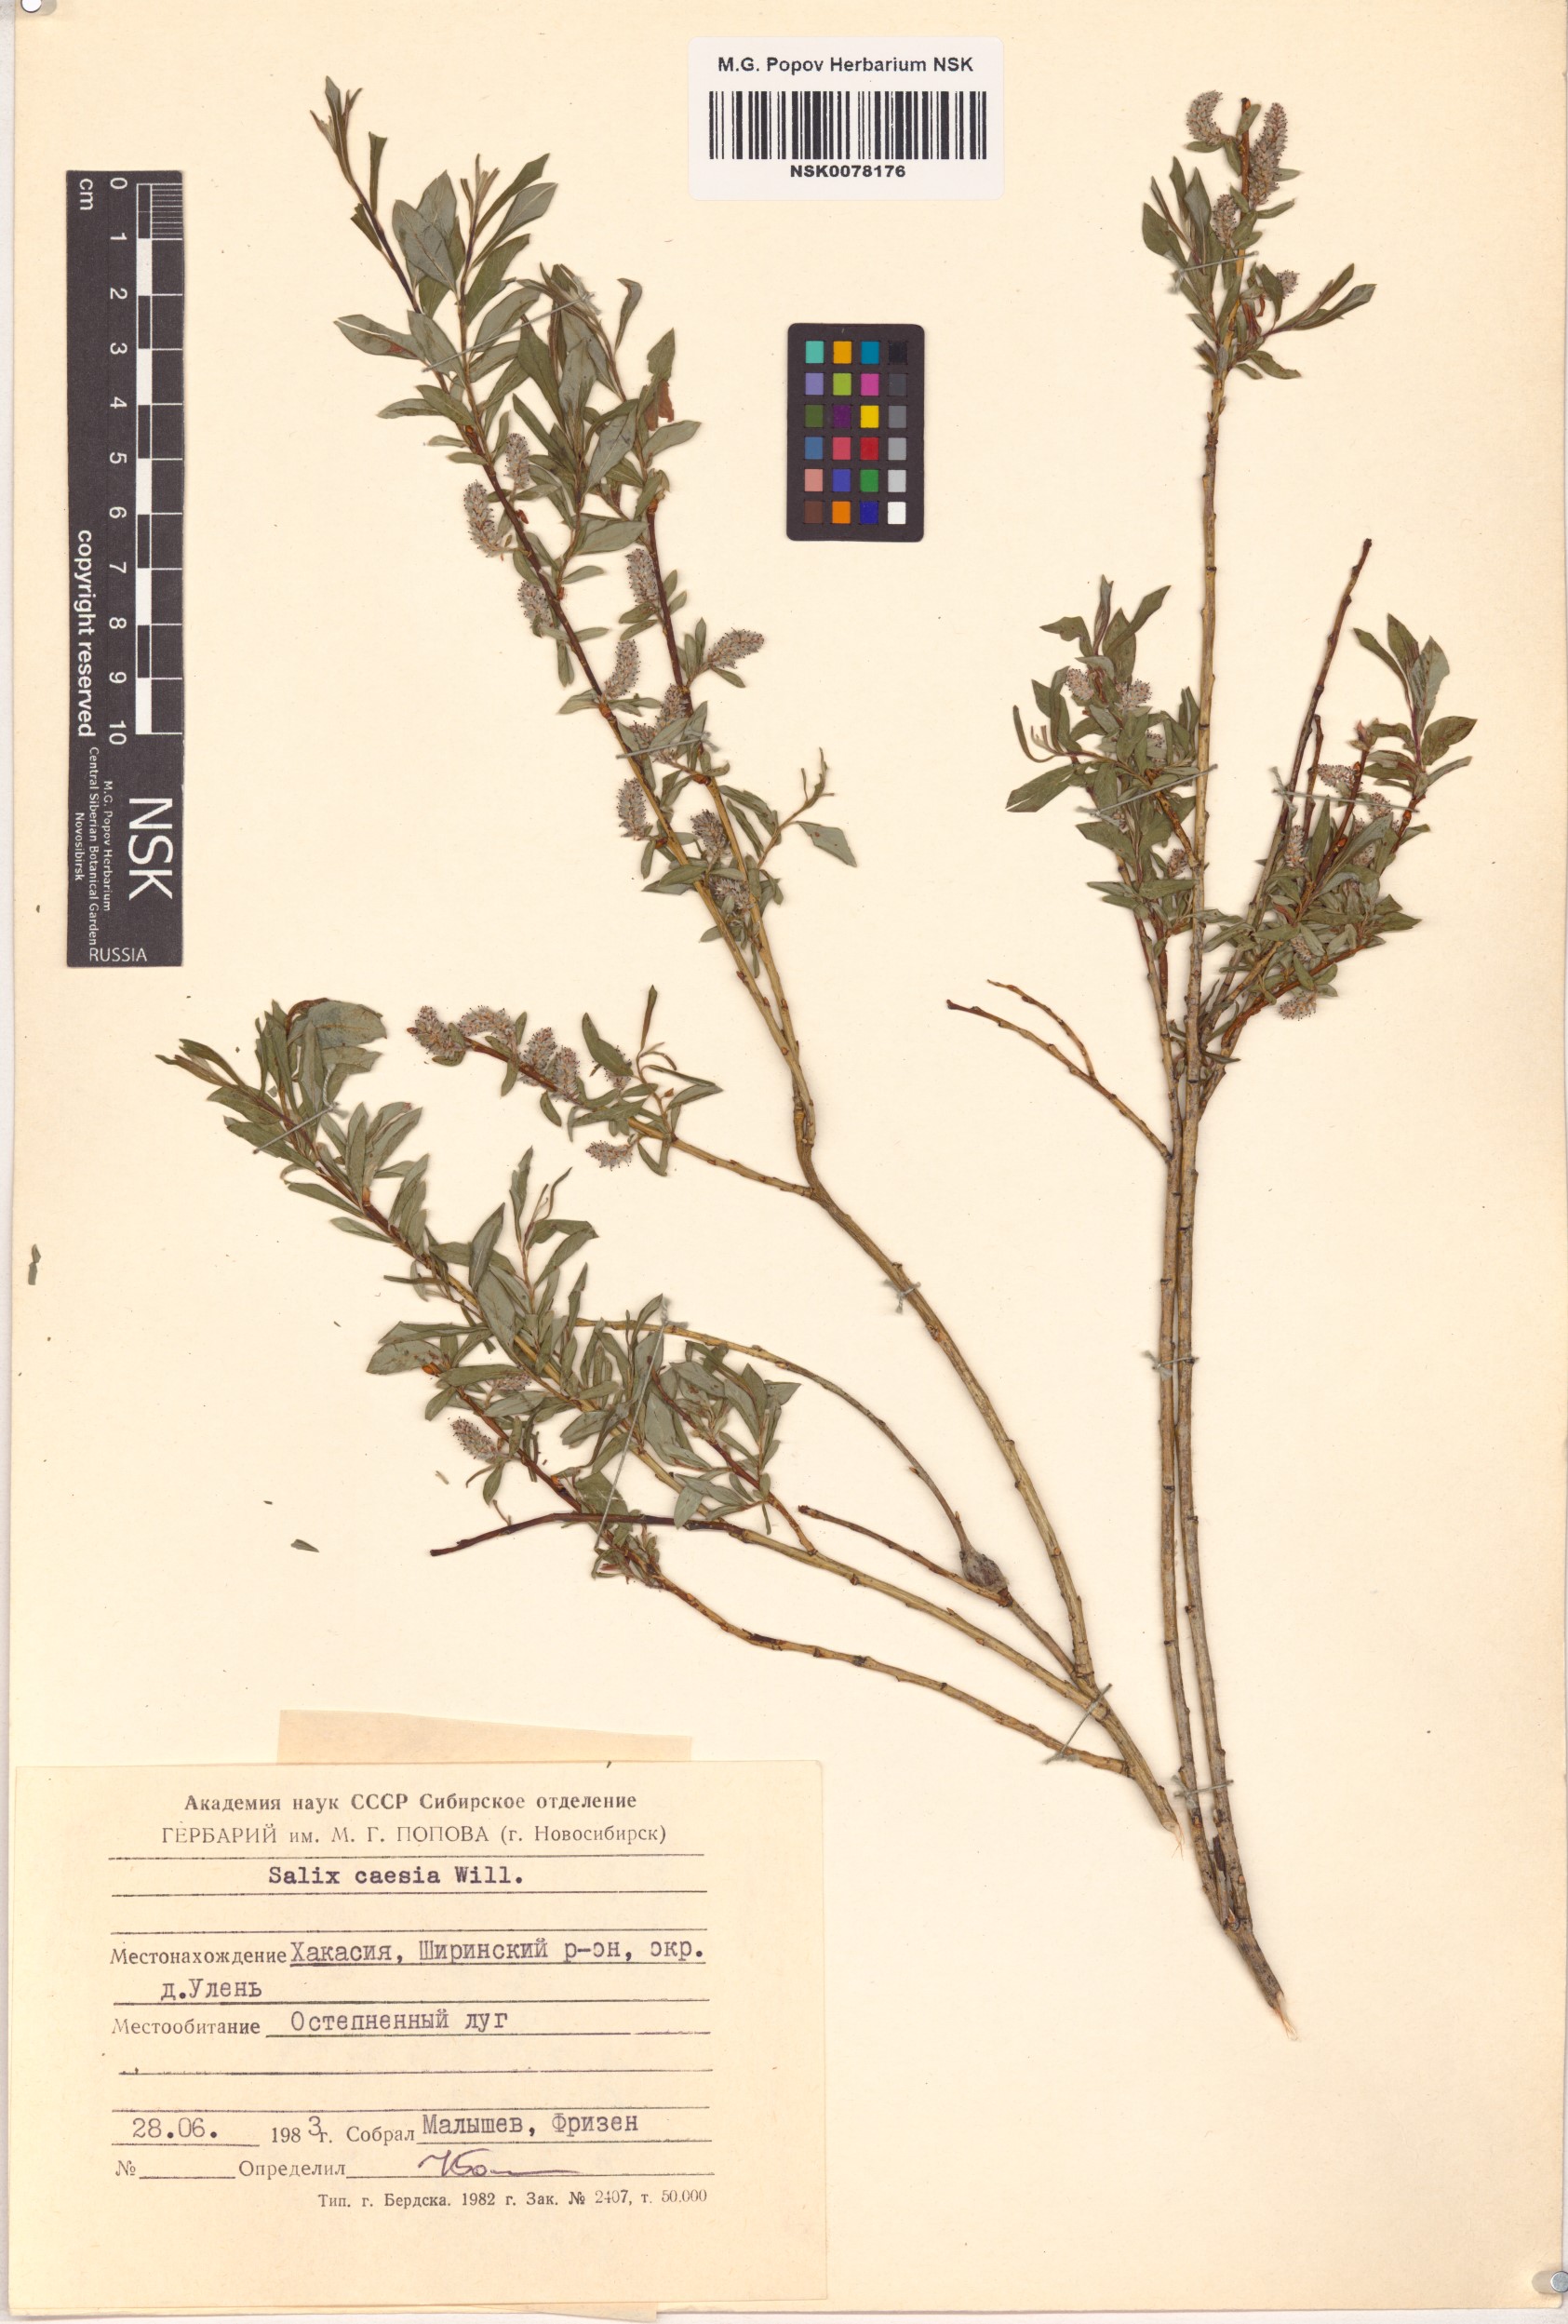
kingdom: Plantae
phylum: Tracheophyta
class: Magnoliopsida
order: Malpighiales
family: Salicaceae
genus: Salix
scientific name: Salix caesia
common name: Blue willow
